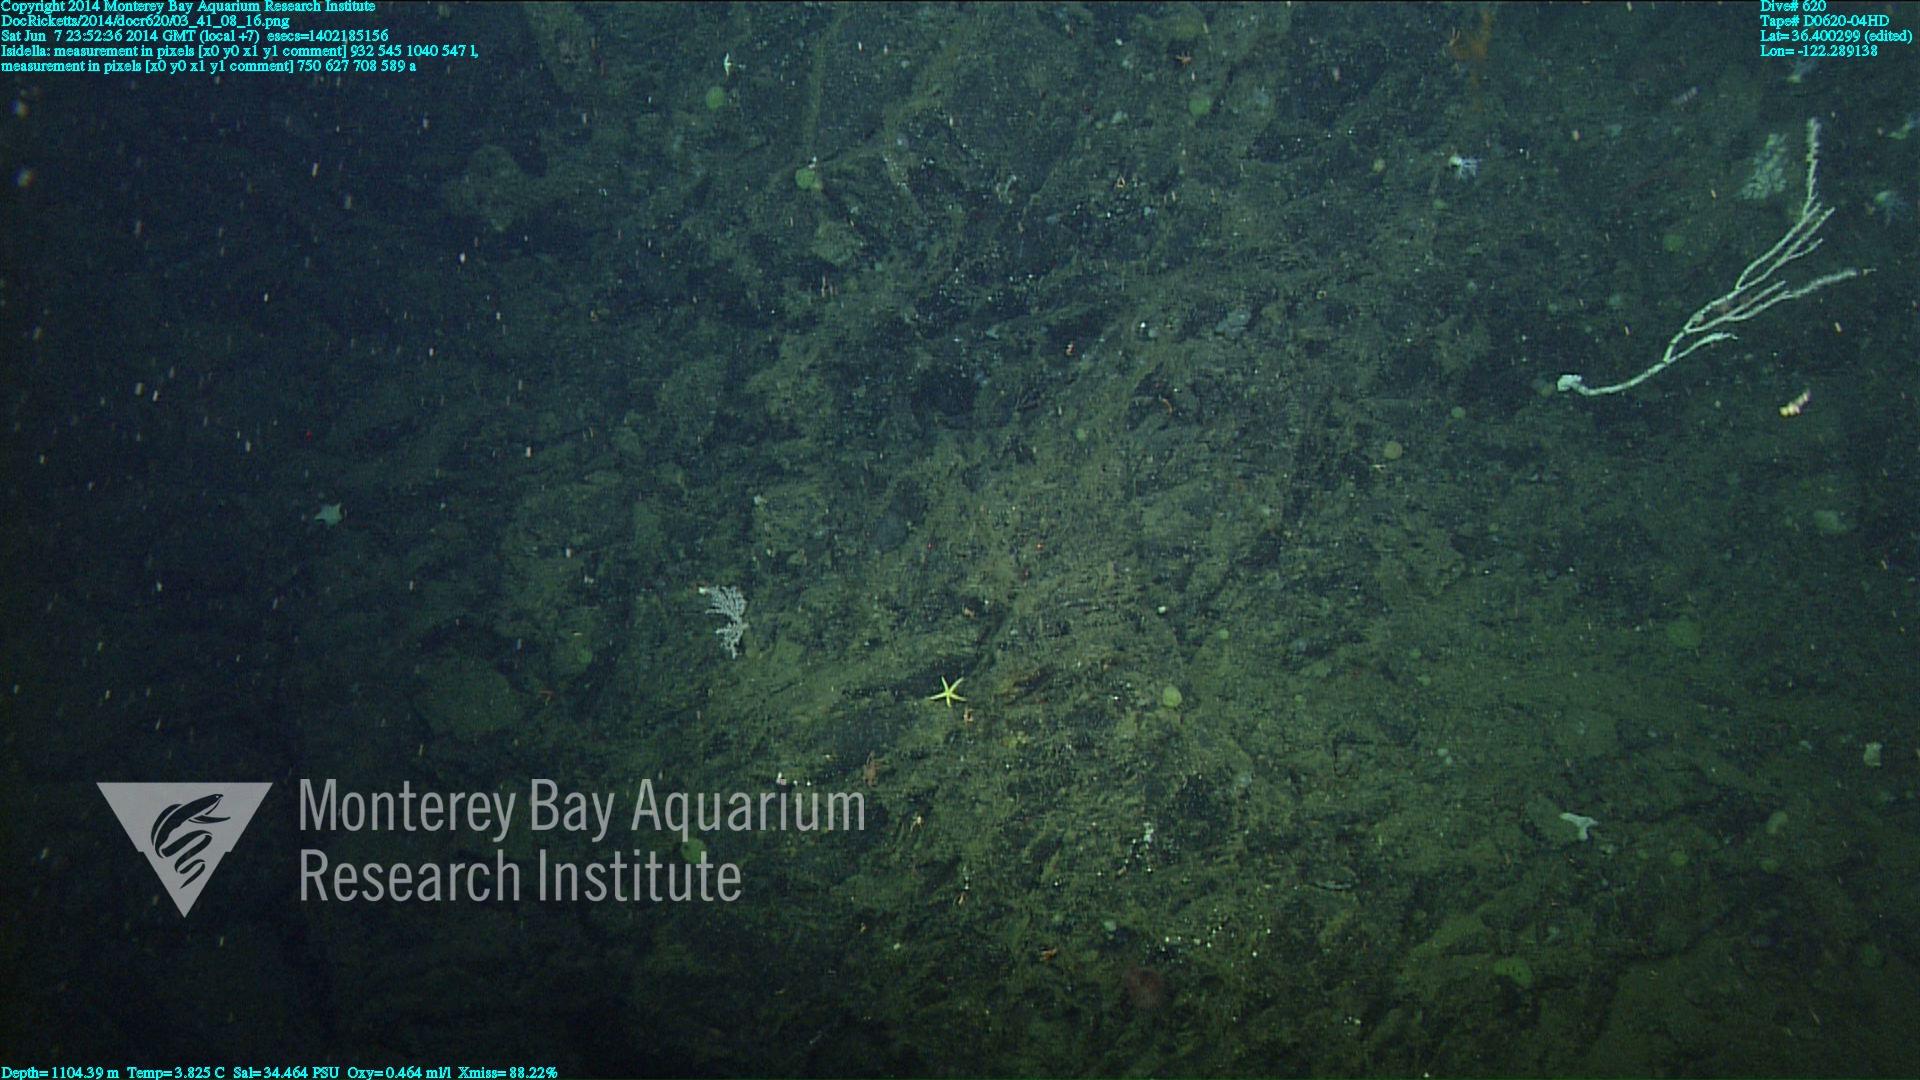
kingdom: Animalia
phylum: Cnidaria
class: Anthozoa
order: Scleralcyonacea
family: Keratoisididae
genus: Isidella
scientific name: Isidella
